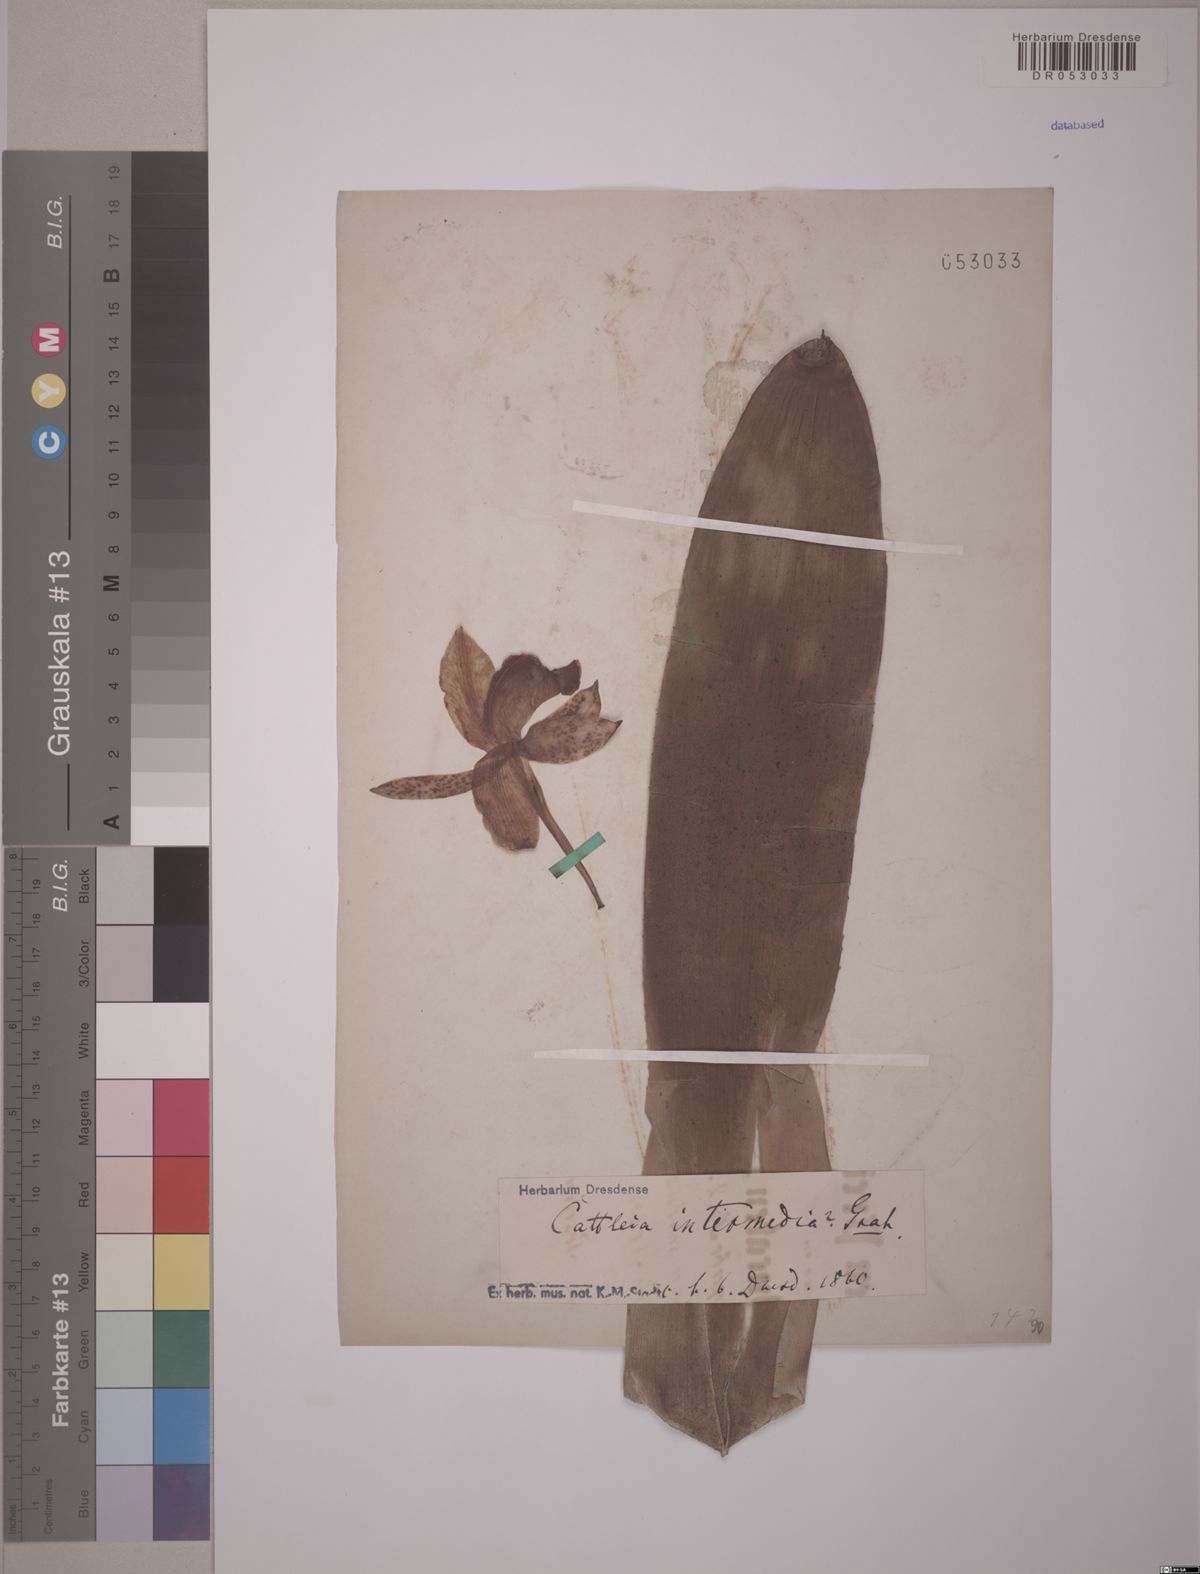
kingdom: Plantae
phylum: Tracheophyta
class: Liliopsida
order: Asparagales
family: Orchidaceae
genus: Cattleya
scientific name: Cattleya intermedia
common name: Intermediate cattleya
